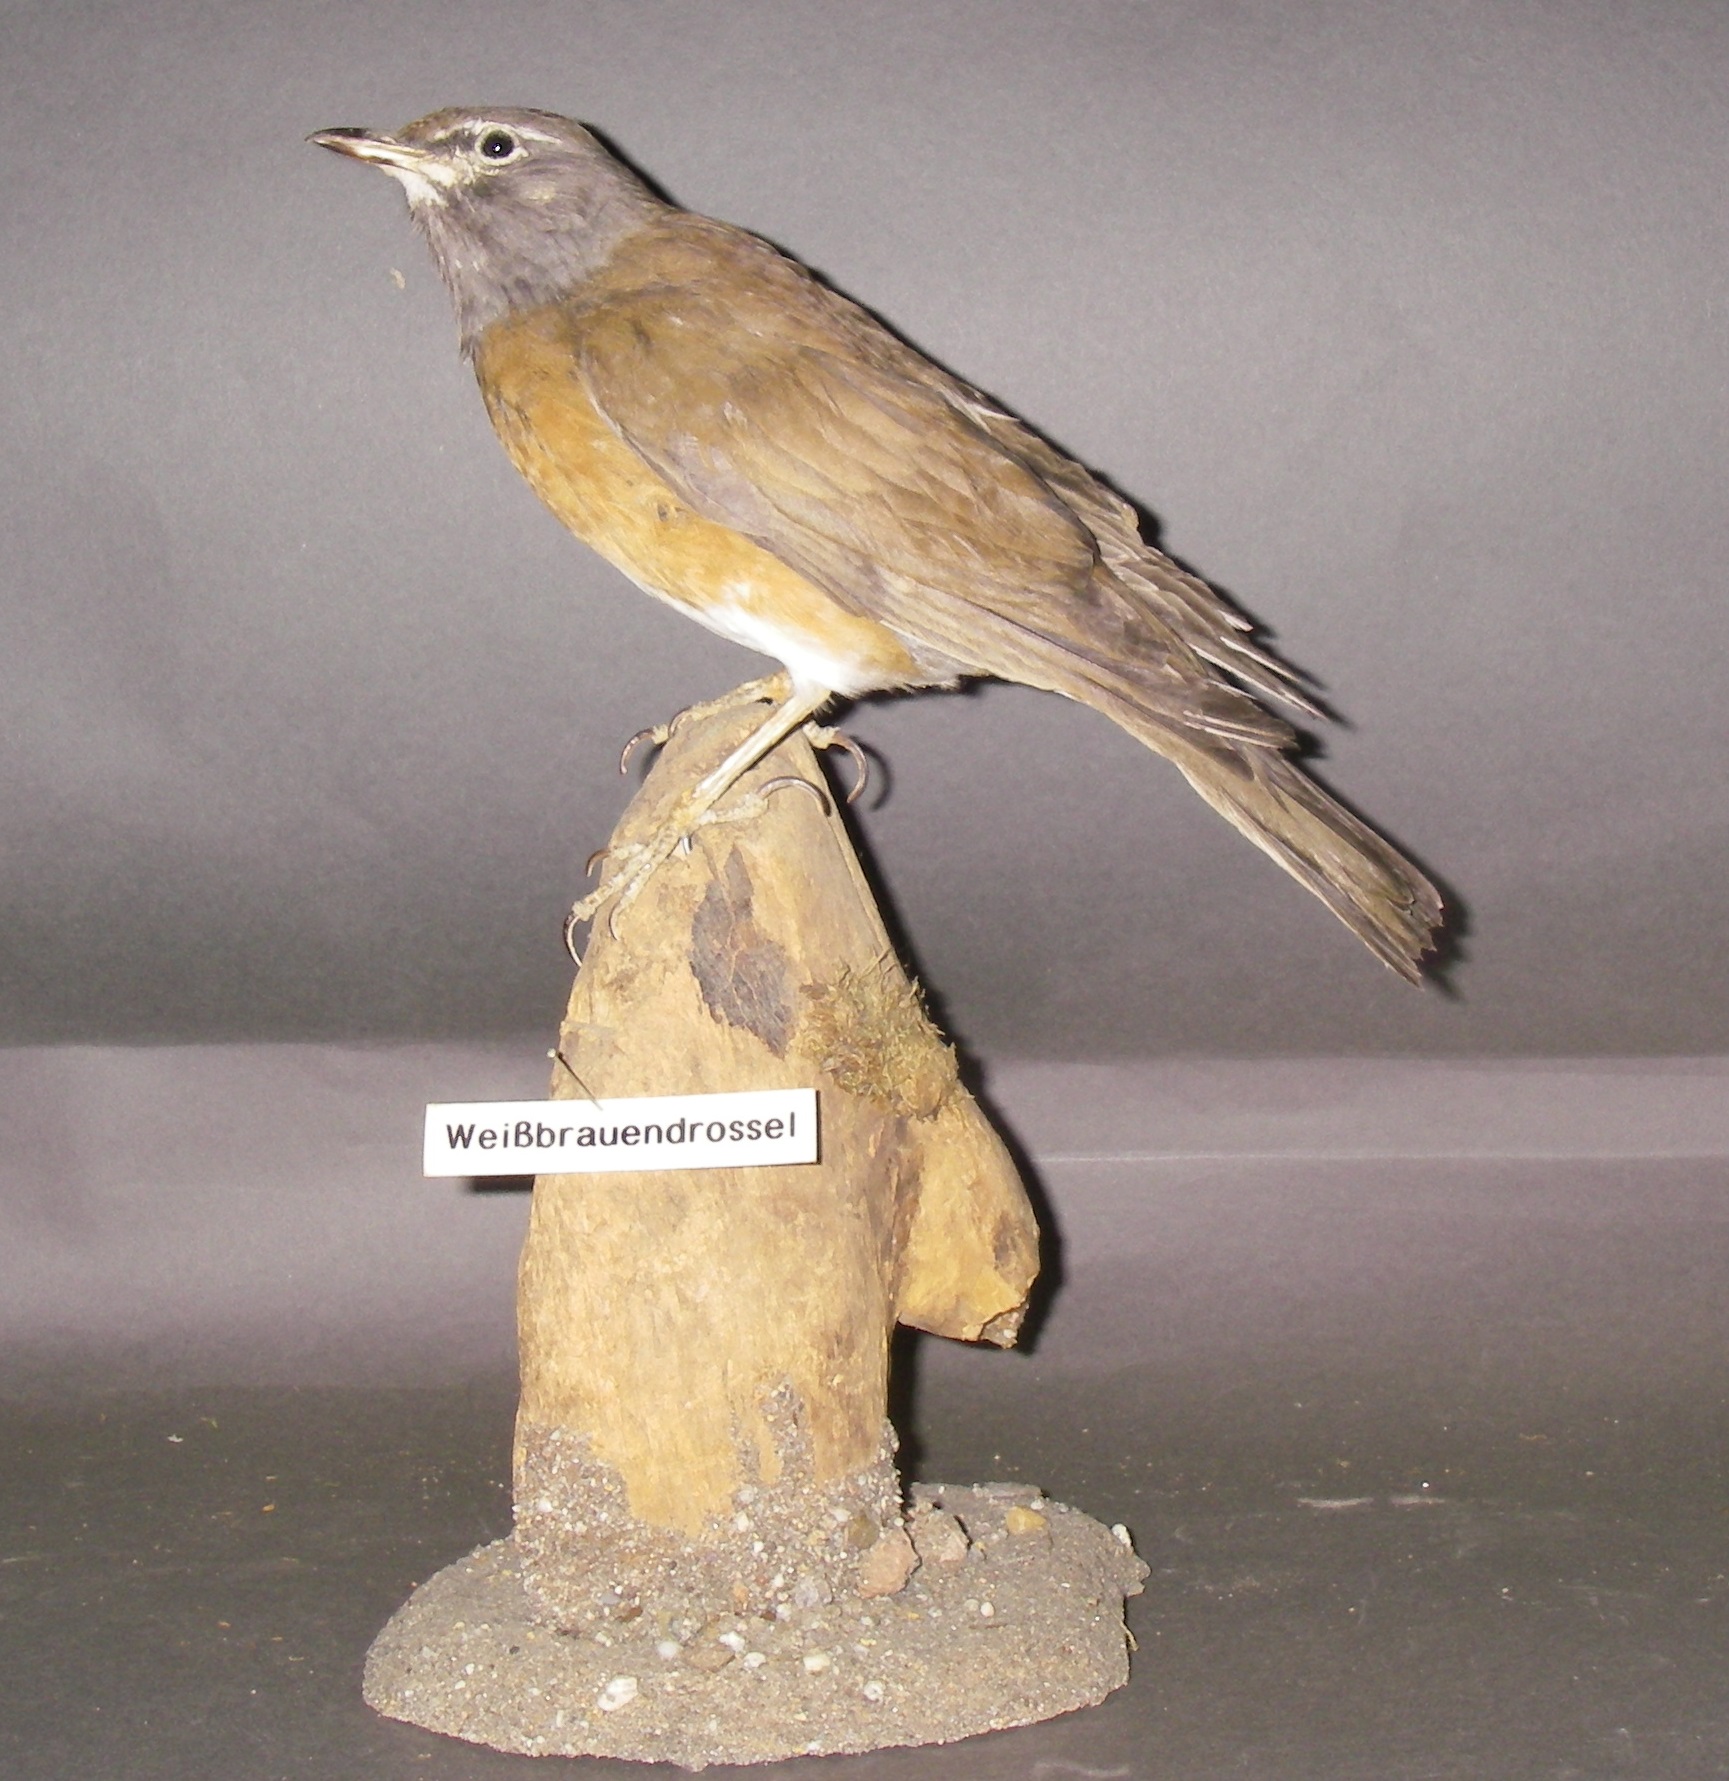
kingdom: Animalia
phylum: Chordata
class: Aves
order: Passeriformes
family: Turdidae
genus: Turdus
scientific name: Turdus obscurus
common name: Eyebrowed thrush
